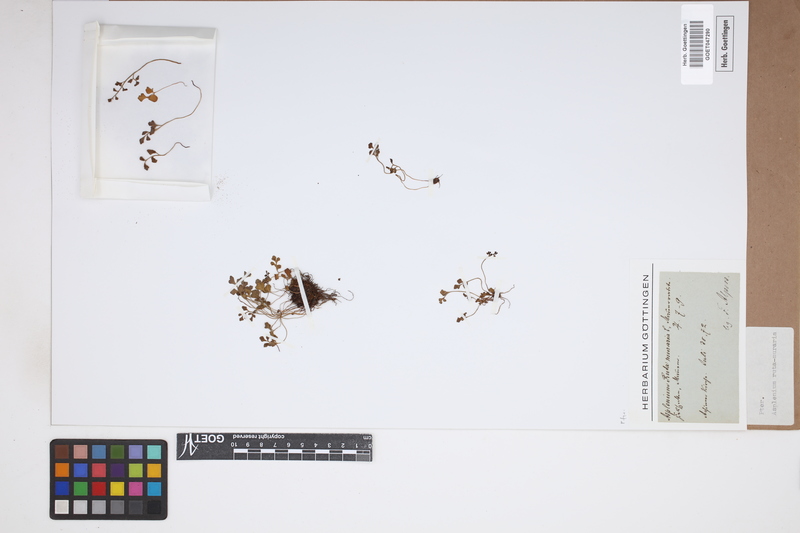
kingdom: Plantae
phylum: Tracheophyta
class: Polypodiopsida
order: Polypodiales
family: Aspleniaceae
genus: Asplenium
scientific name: Asplenium ruta-muraria
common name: Wall-rue
